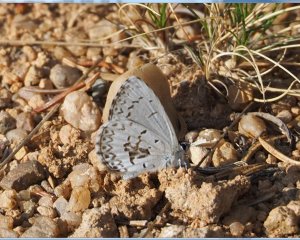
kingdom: Animalia
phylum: Arthropoda
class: Insecta
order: Lepidoptera
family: Lycaenidae
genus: Celastrina
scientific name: Celastrina lucia
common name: Northern Spring Azure
